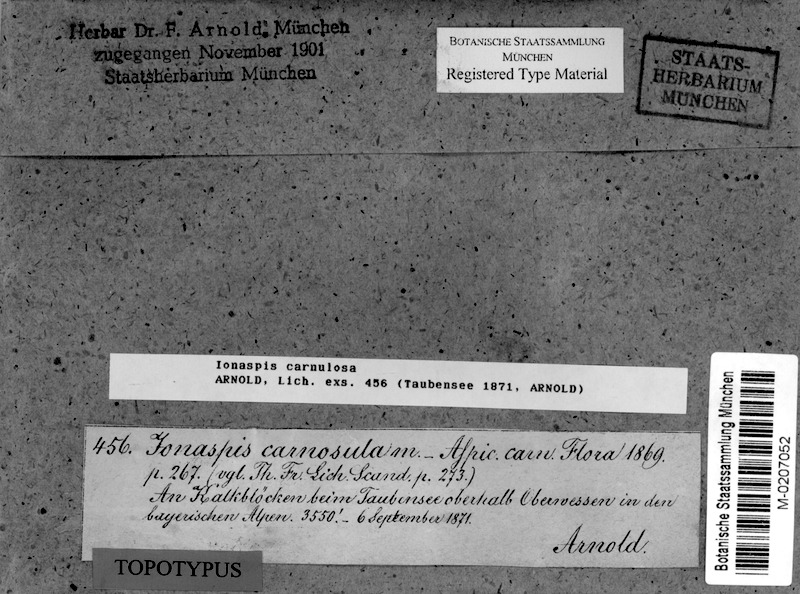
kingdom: Fungi
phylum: Ascomycota
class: Lecanoromycetes
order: Hymeneliales
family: Hymeneliaceae
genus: Hymenelia
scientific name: Hymenelia carnosula
